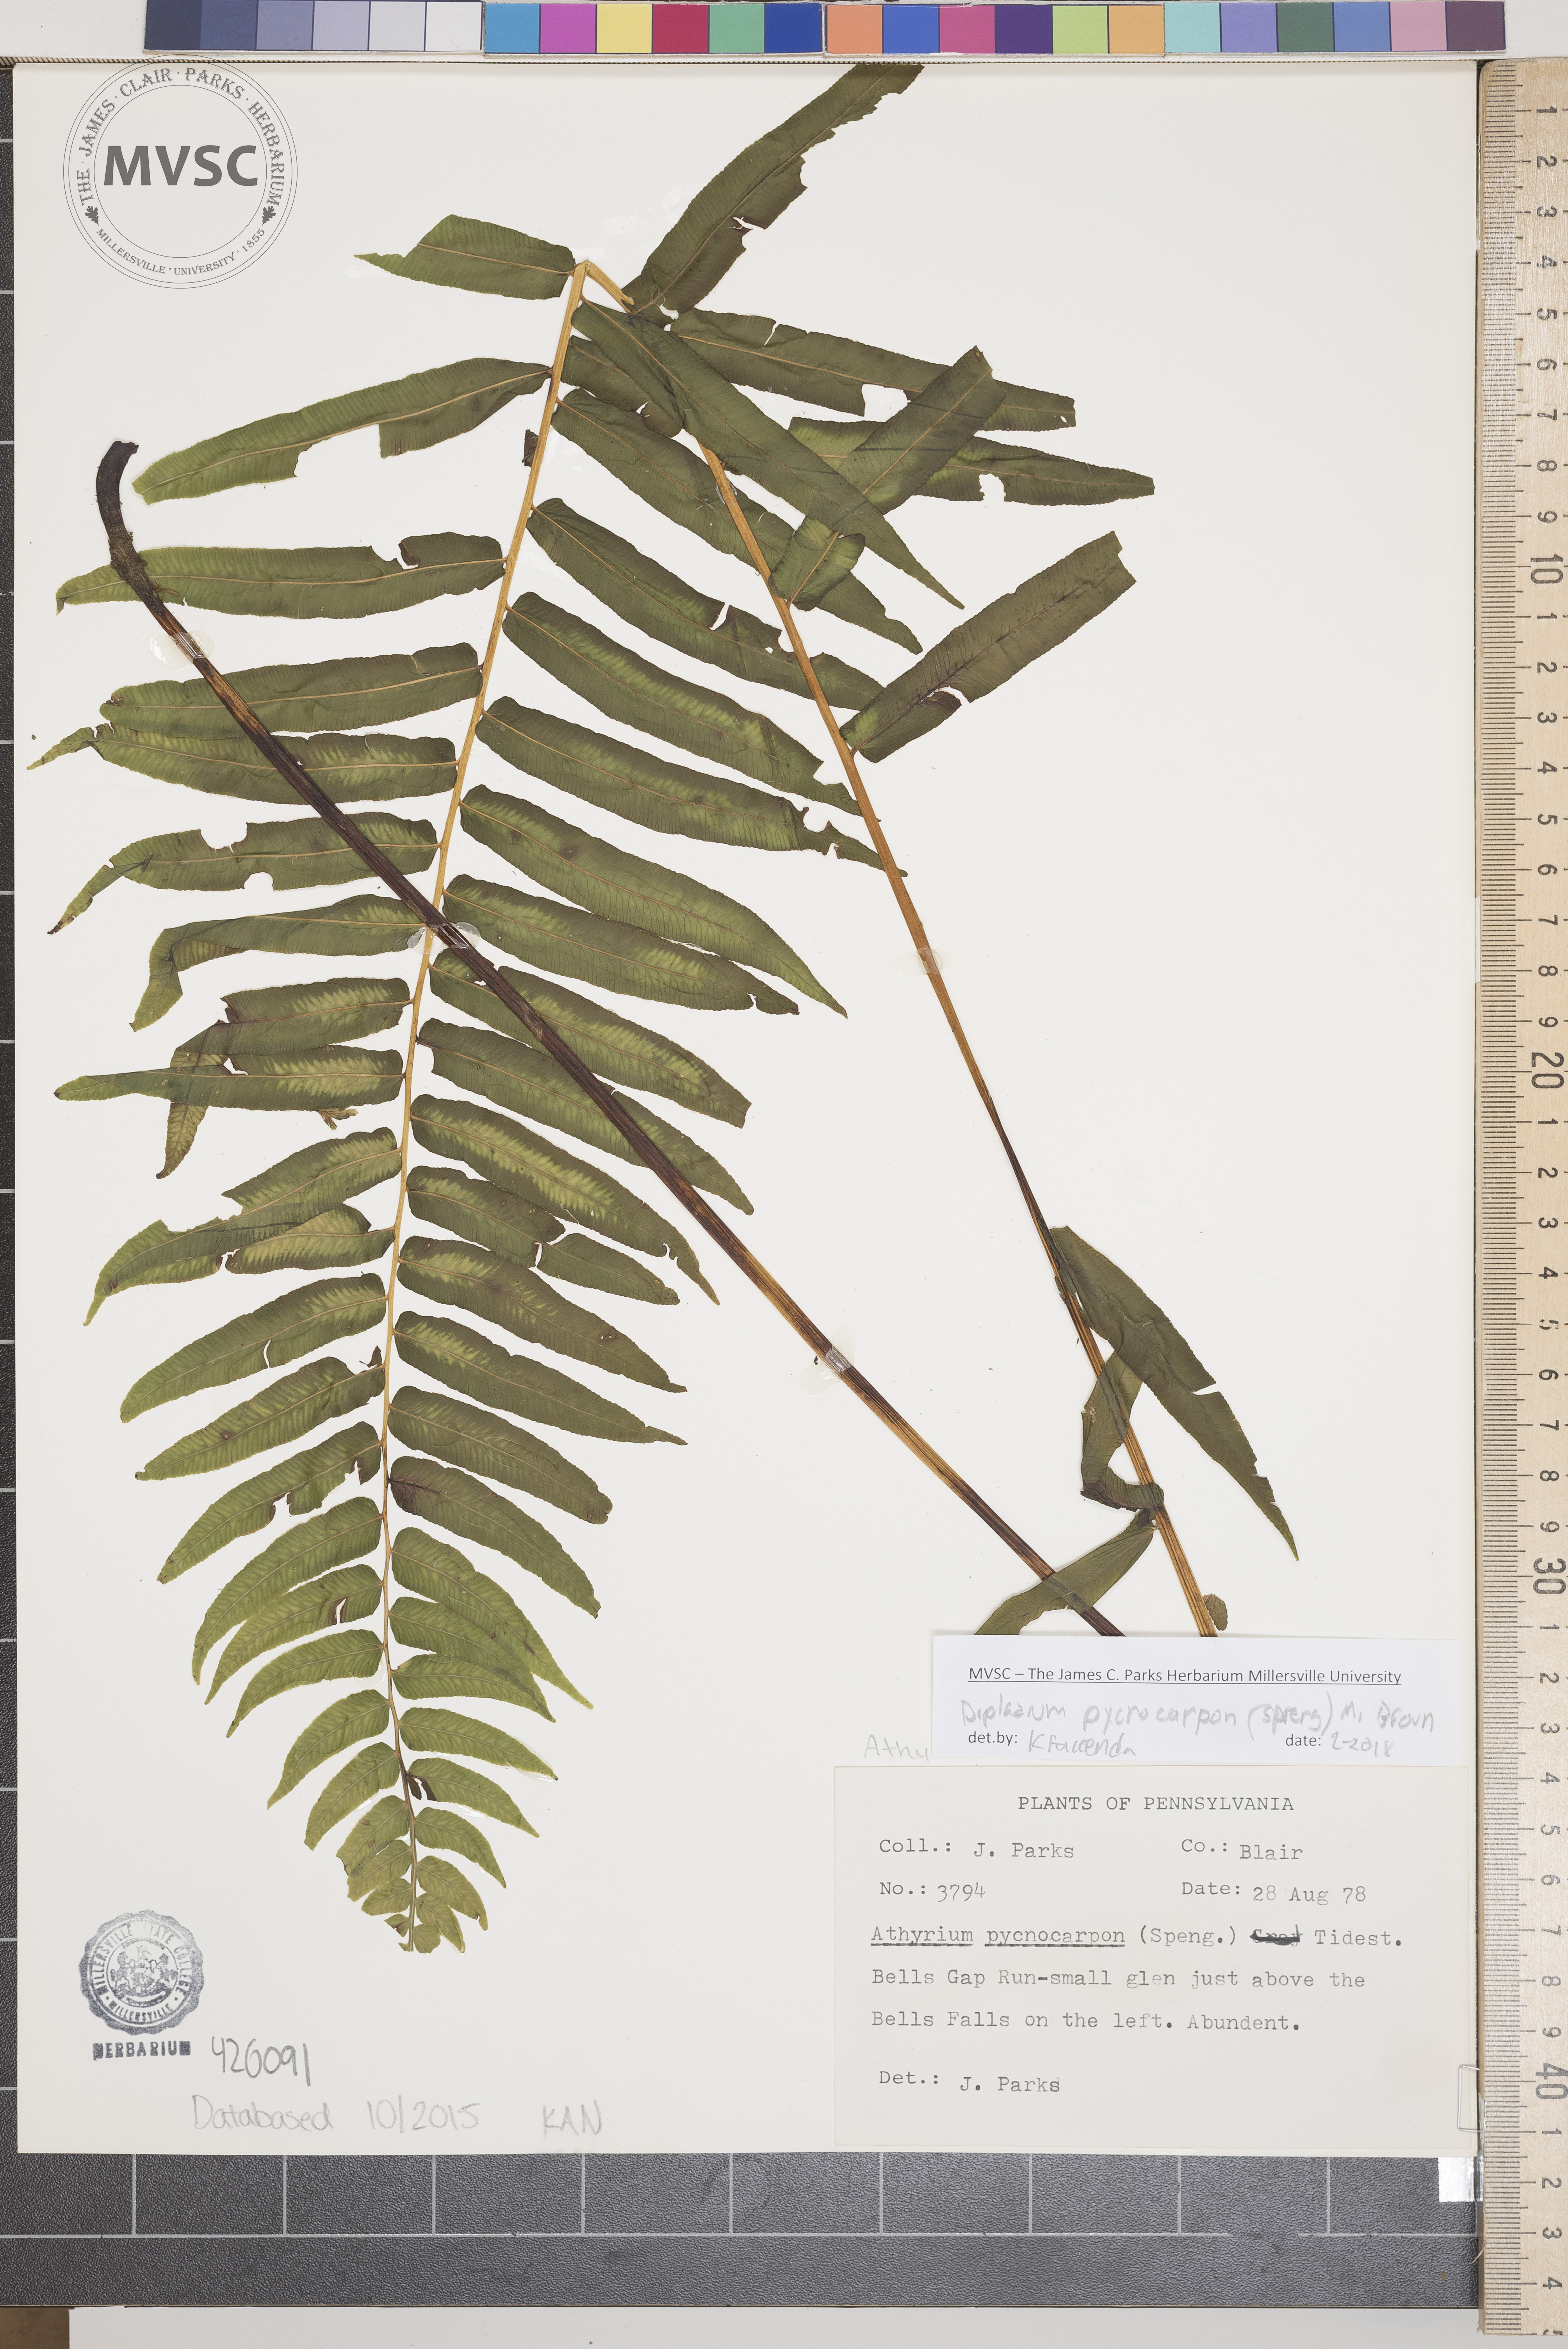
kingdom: Plantae
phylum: Tracheophyta
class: Polypodiopsida
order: Polypodiales
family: Diplaziopsidaceae
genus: Homalosorus
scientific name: Homalosorus pycnocarpos
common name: Glade fern
